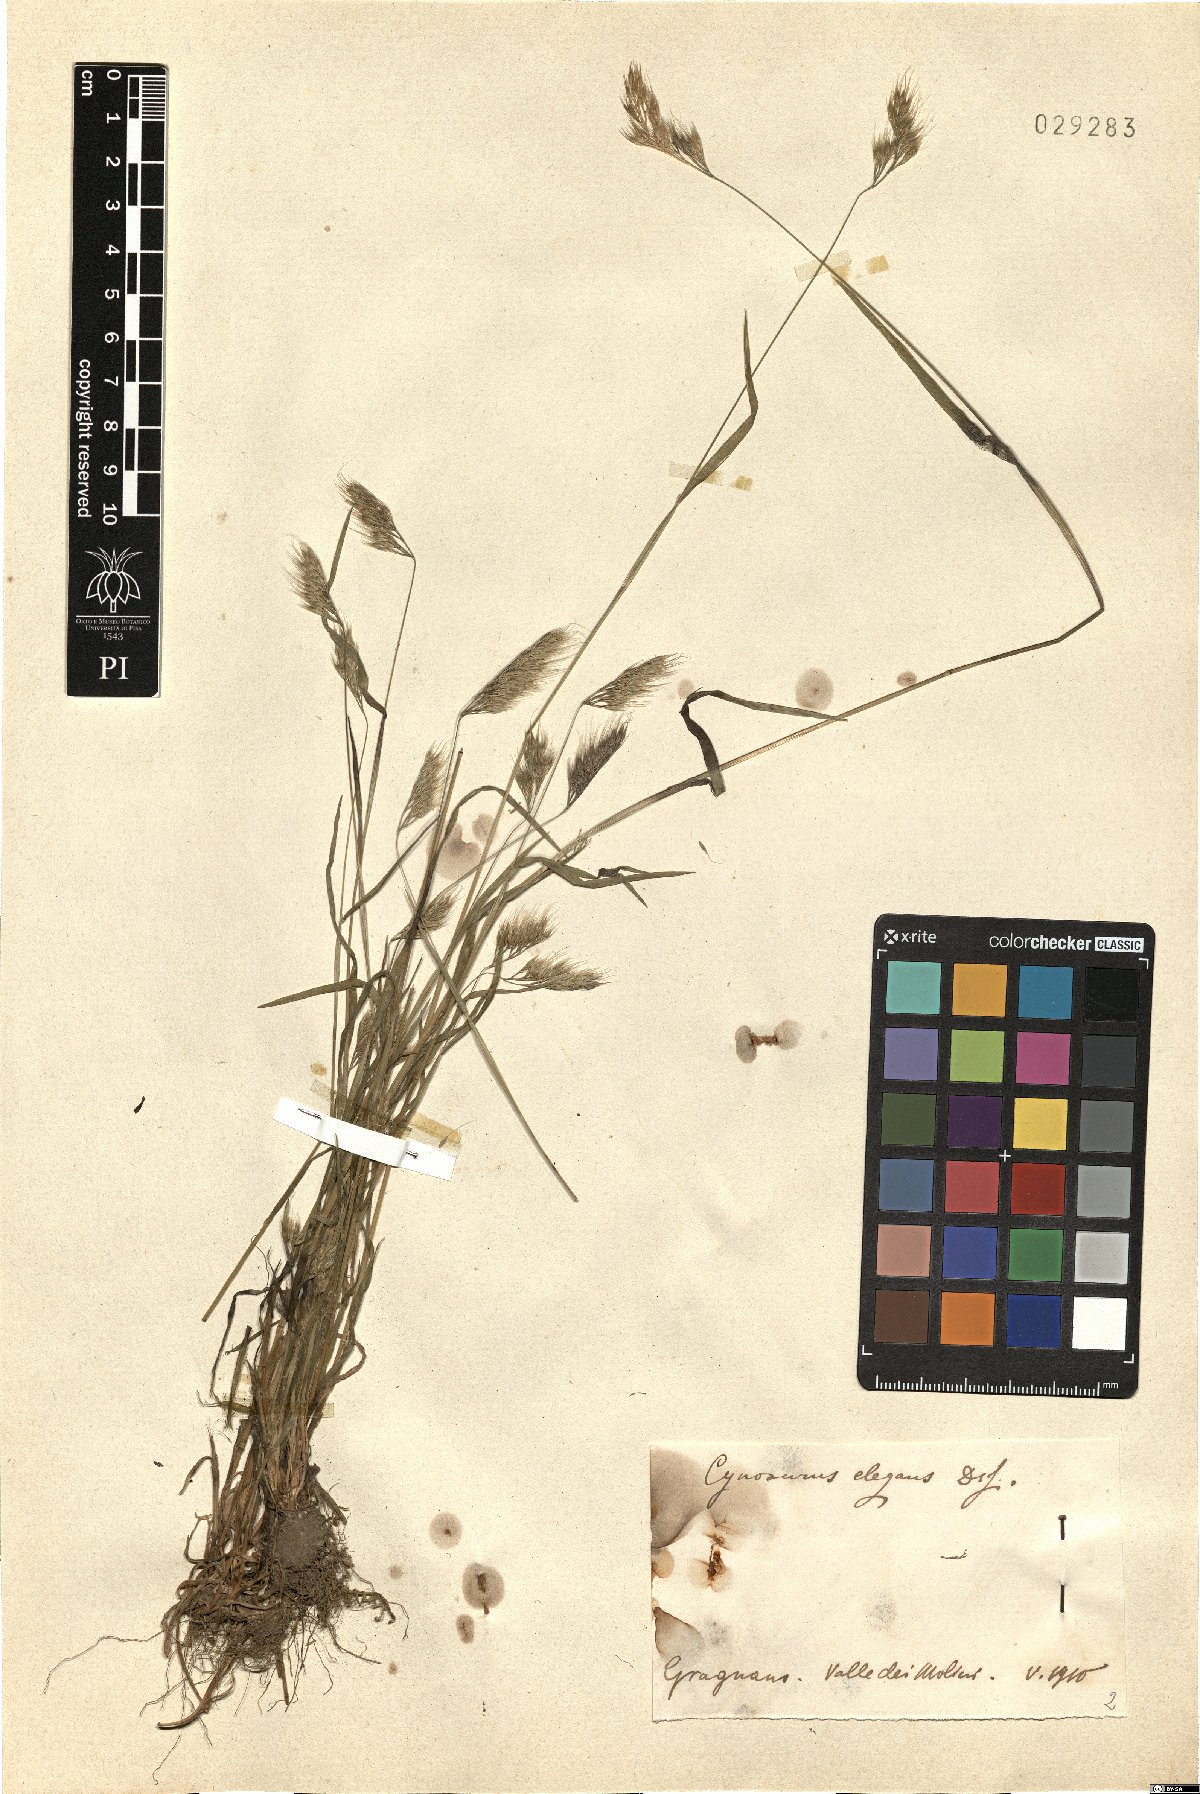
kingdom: Plantae
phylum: Tracheophyta
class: Liliopsida
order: Poales
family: Poaceae
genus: Cynosurus
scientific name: Cynosurus elegans
